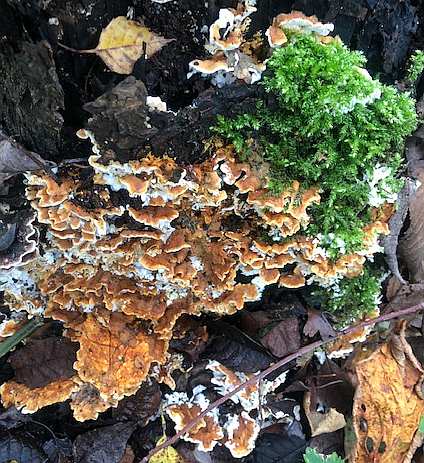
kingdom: Fungi
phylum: Basidiomycota
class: Agaricomycetes
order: Polyporales
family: Steccherinaceae
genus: Loweomyces
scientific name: Loweomyces wynneae
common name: krybende blødporesvamp
